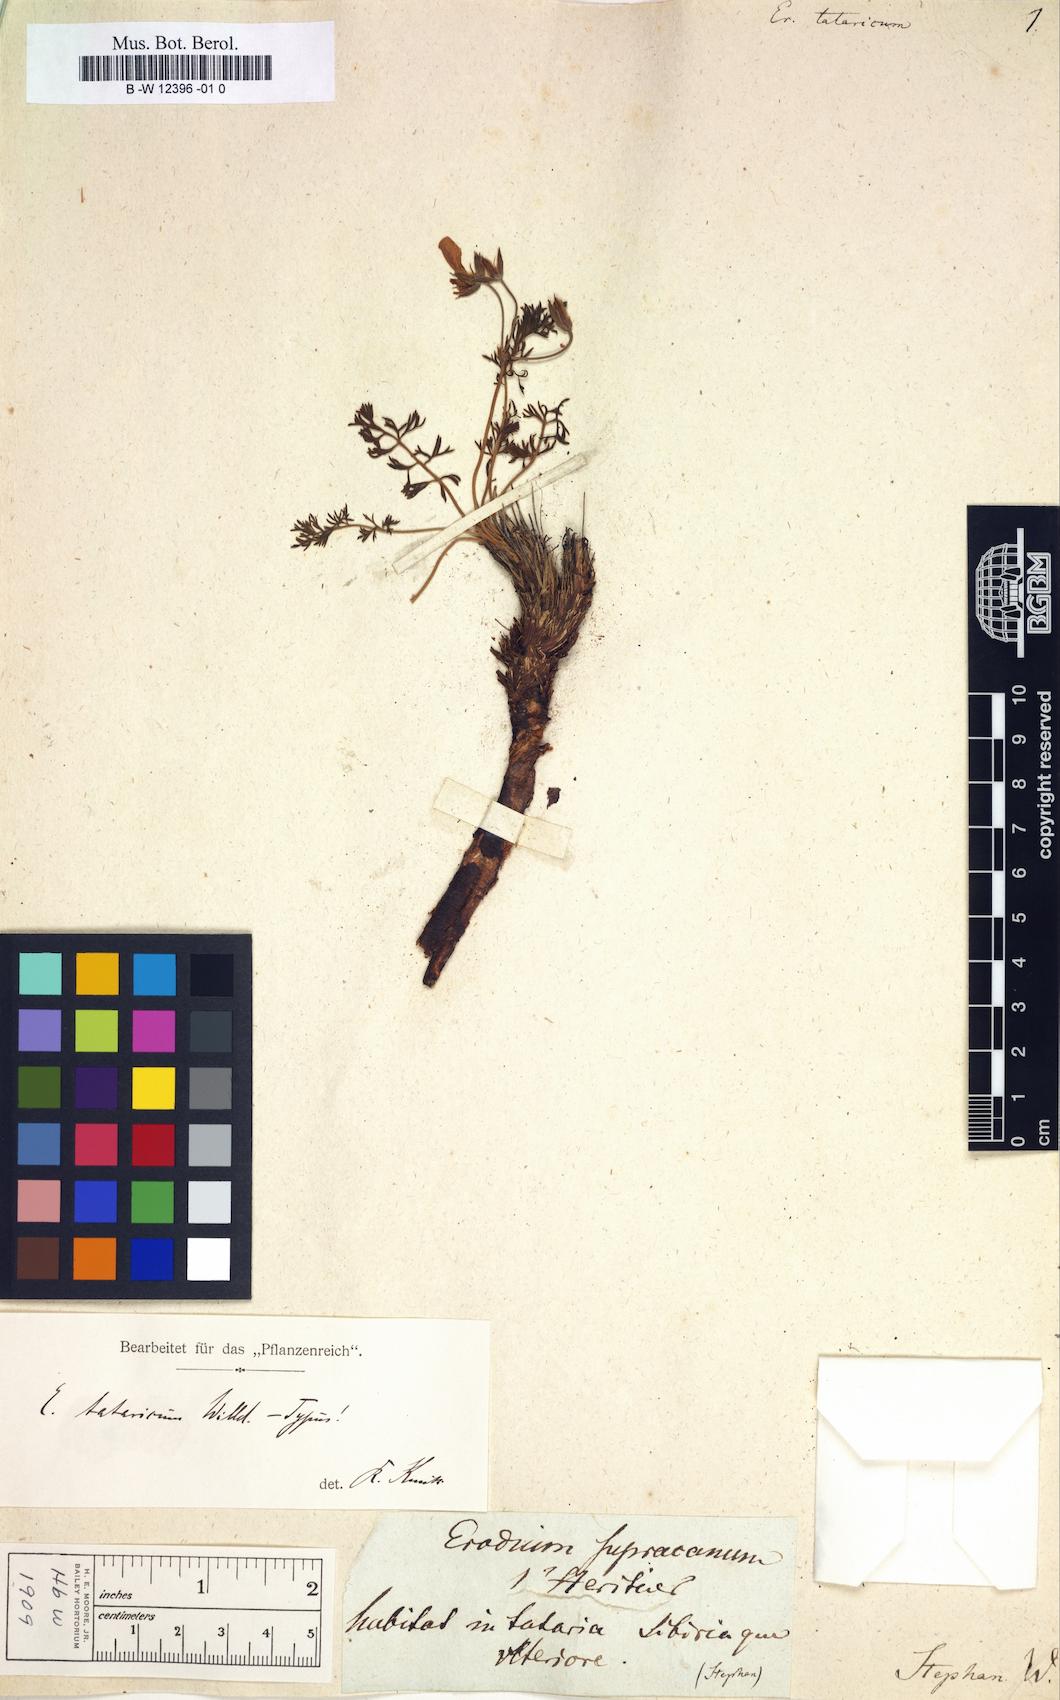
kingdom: Plantae
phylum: Tracheophyta
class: Magnoliopsida
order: Geraniales
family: Geraniaceae
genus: Erodium
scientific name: Erodium tataricum
